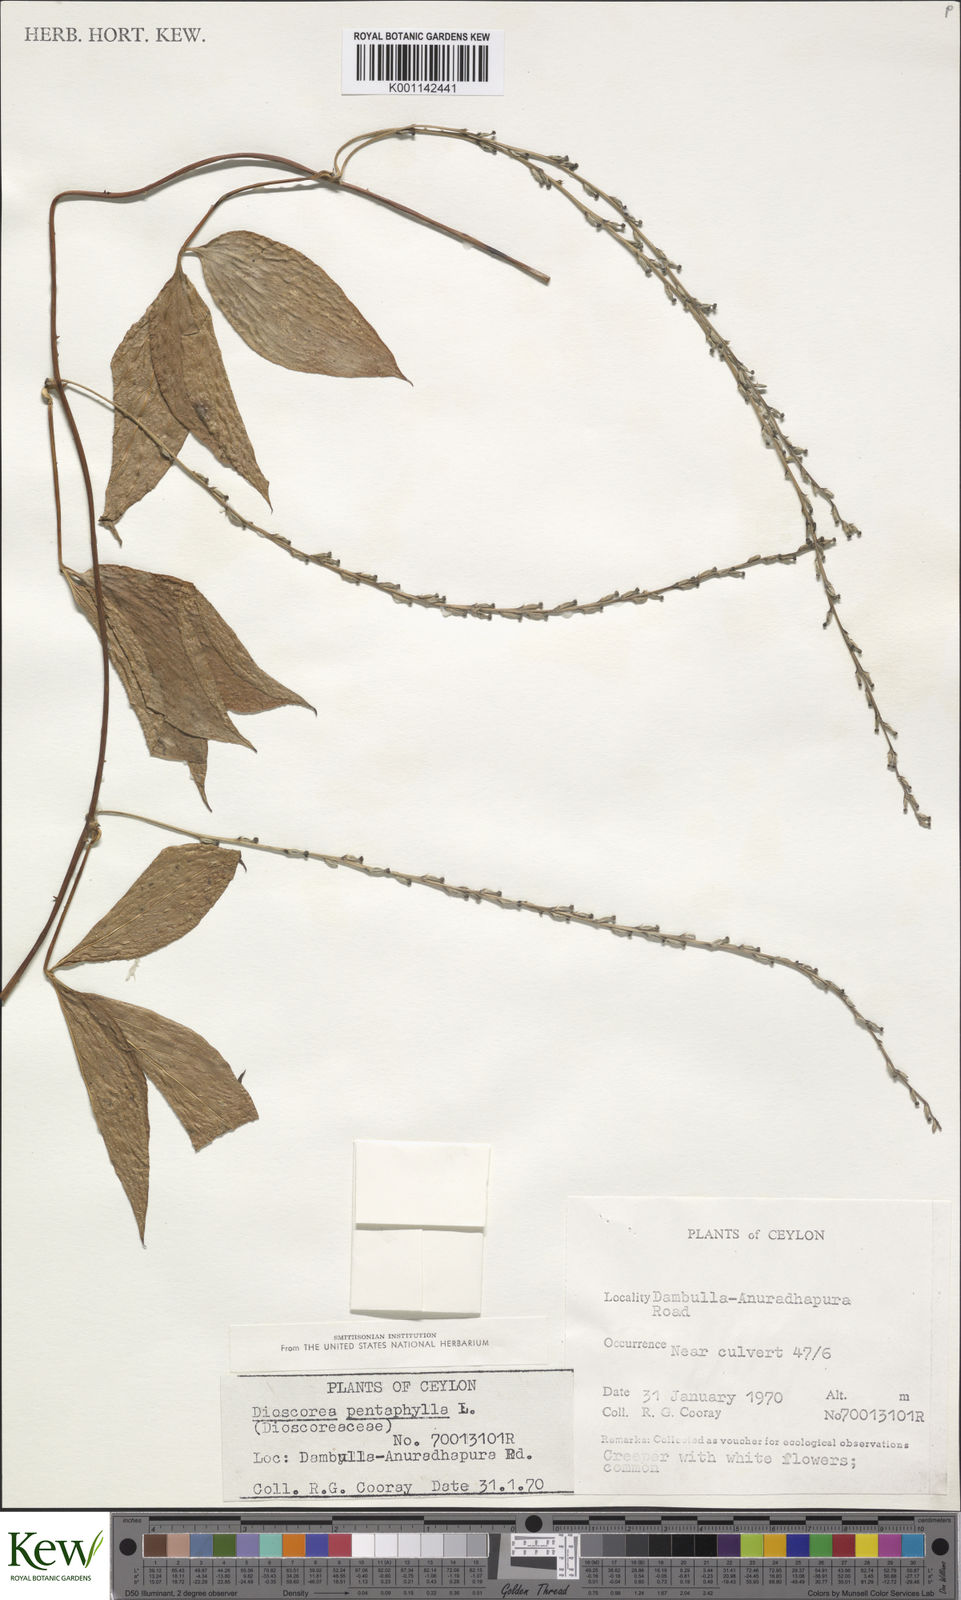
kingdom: Plantae
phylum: Tracheophyta
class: Liliopsida
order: Dioscoreales
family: Dioscoreaceae
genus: Dioscorea
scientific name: Dioscorea pentaphylla
